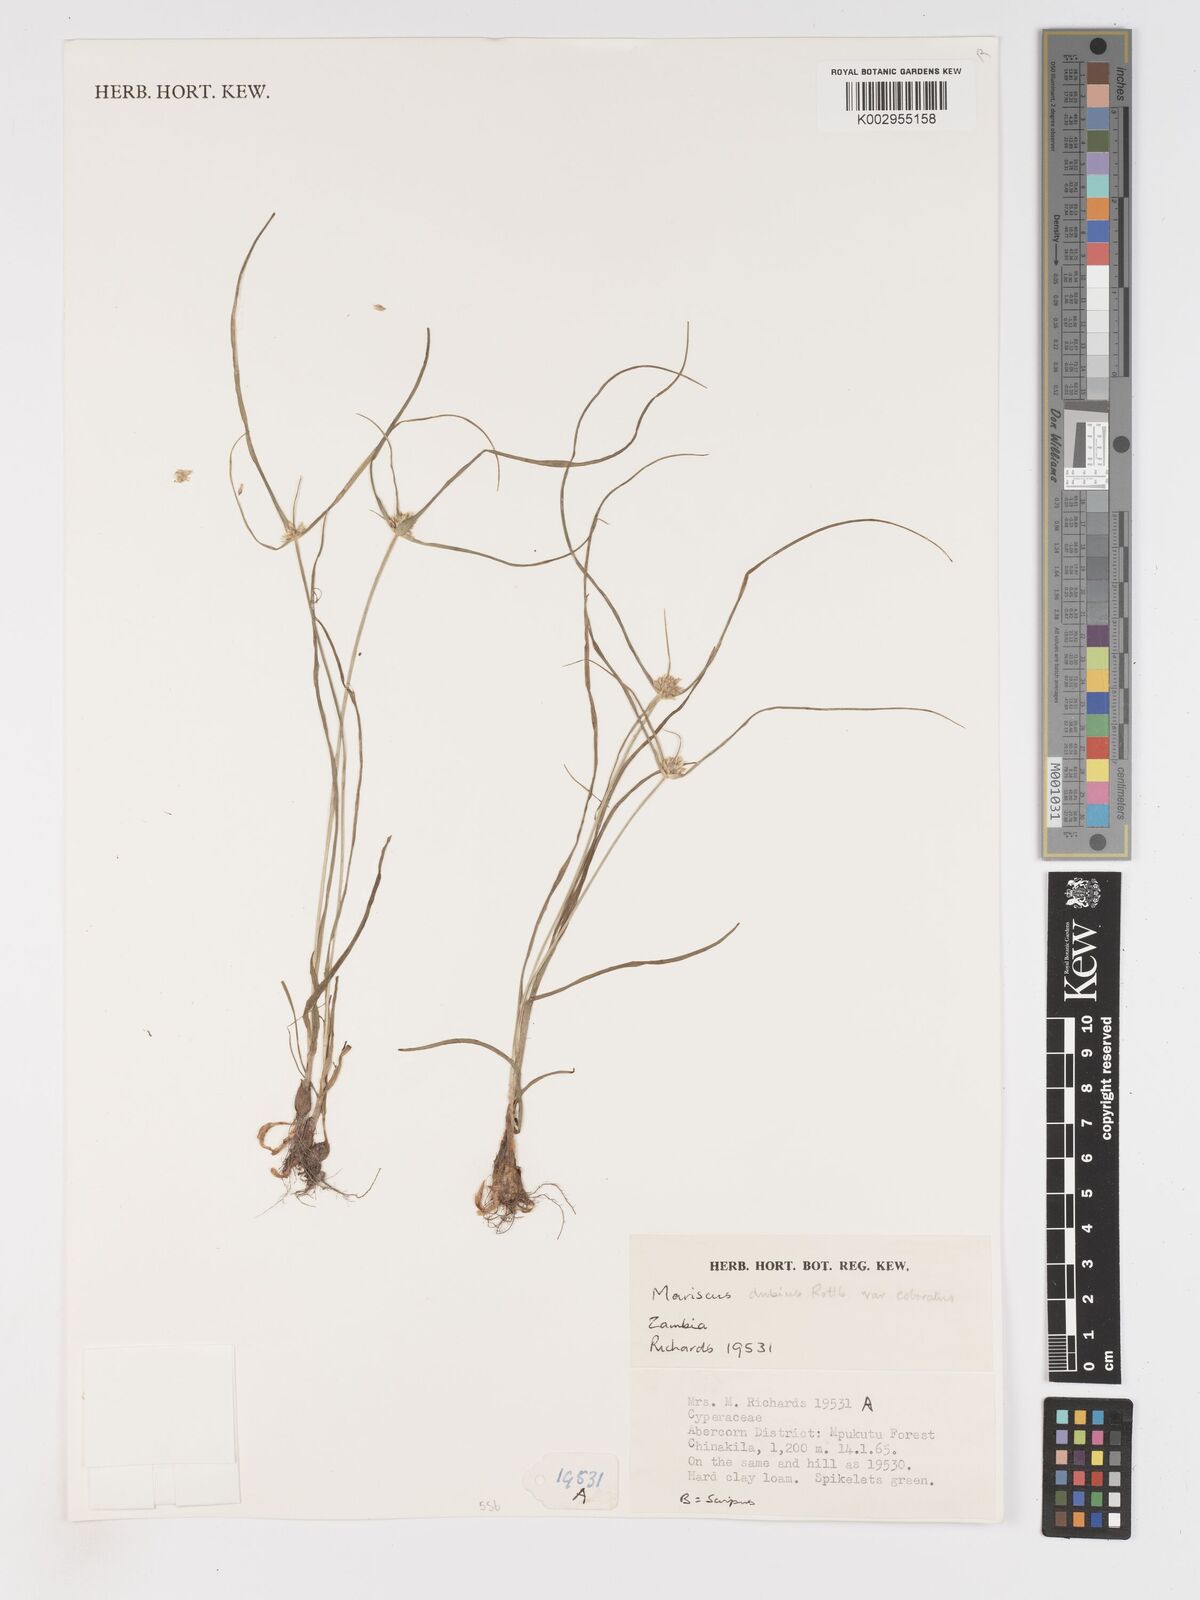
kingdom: Plantae
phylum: Tracheophyta
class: Liliopsida
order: Poales
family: Cyperaceae
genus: Cyperus
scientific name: Cyperus dubius
